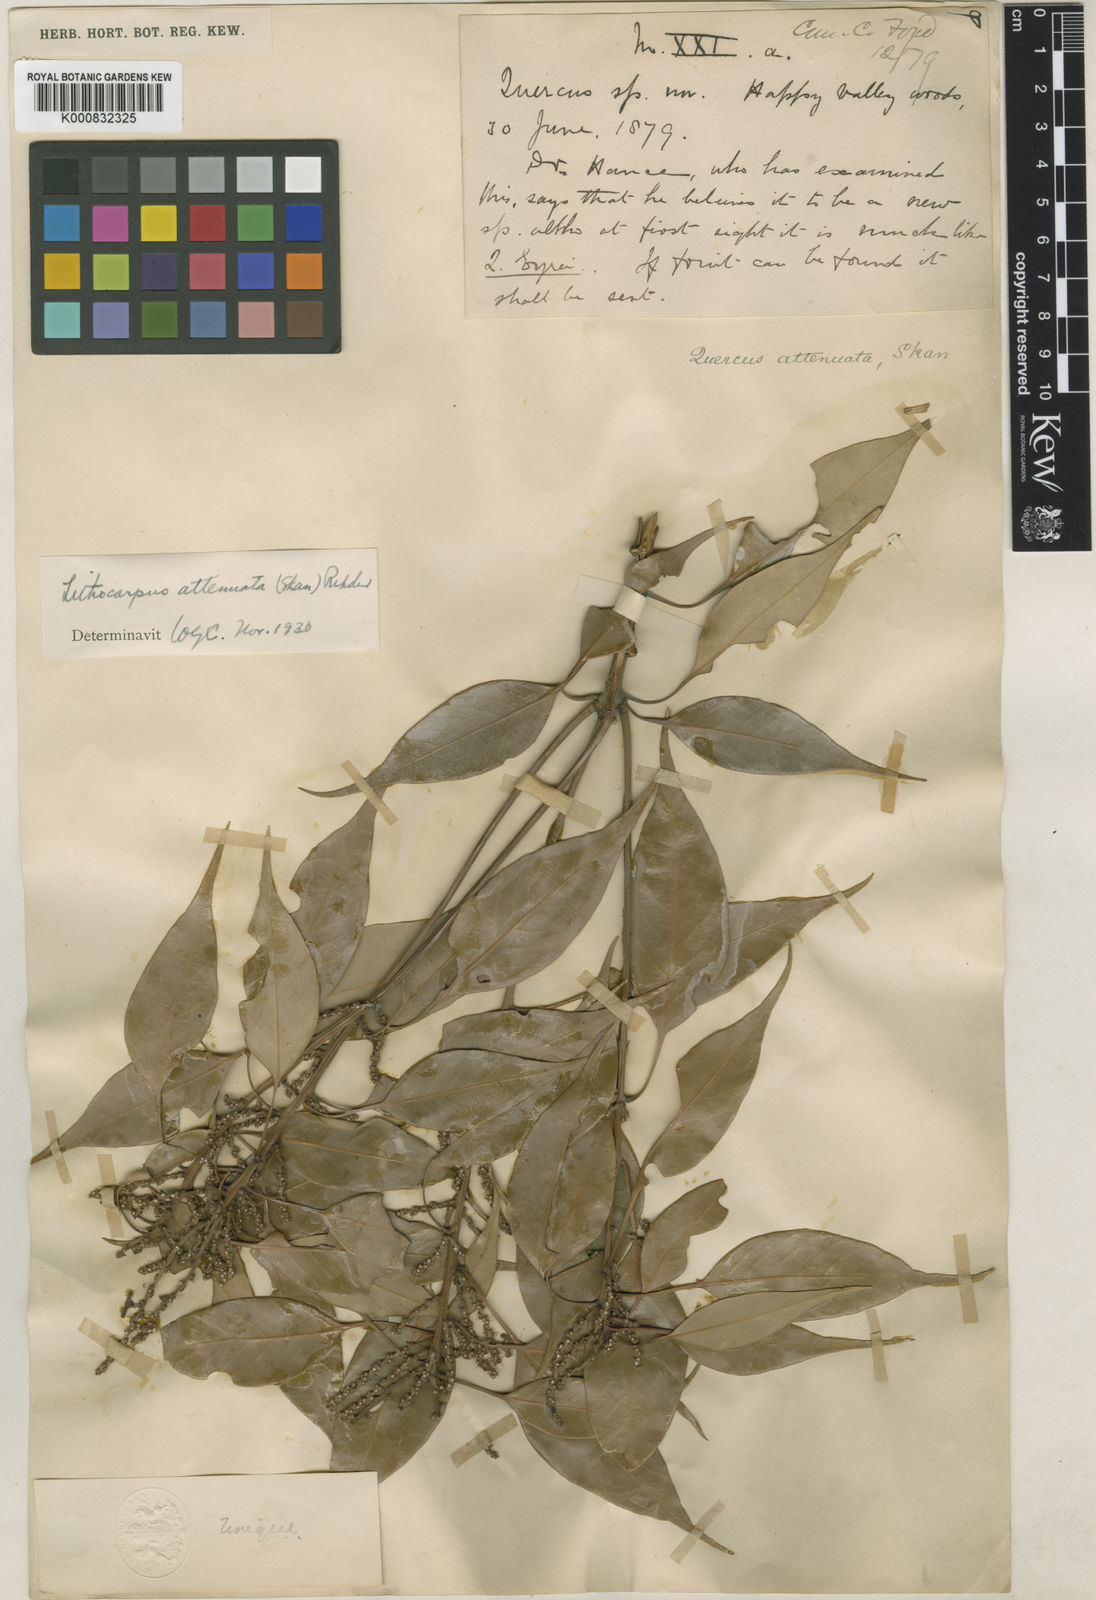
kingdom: Plantae
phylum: Tracheophyta
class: Magnoliopsida
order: Fagales
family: Fagaceae
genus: Lithocarpus
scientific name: Lithocarpus attenuatus
